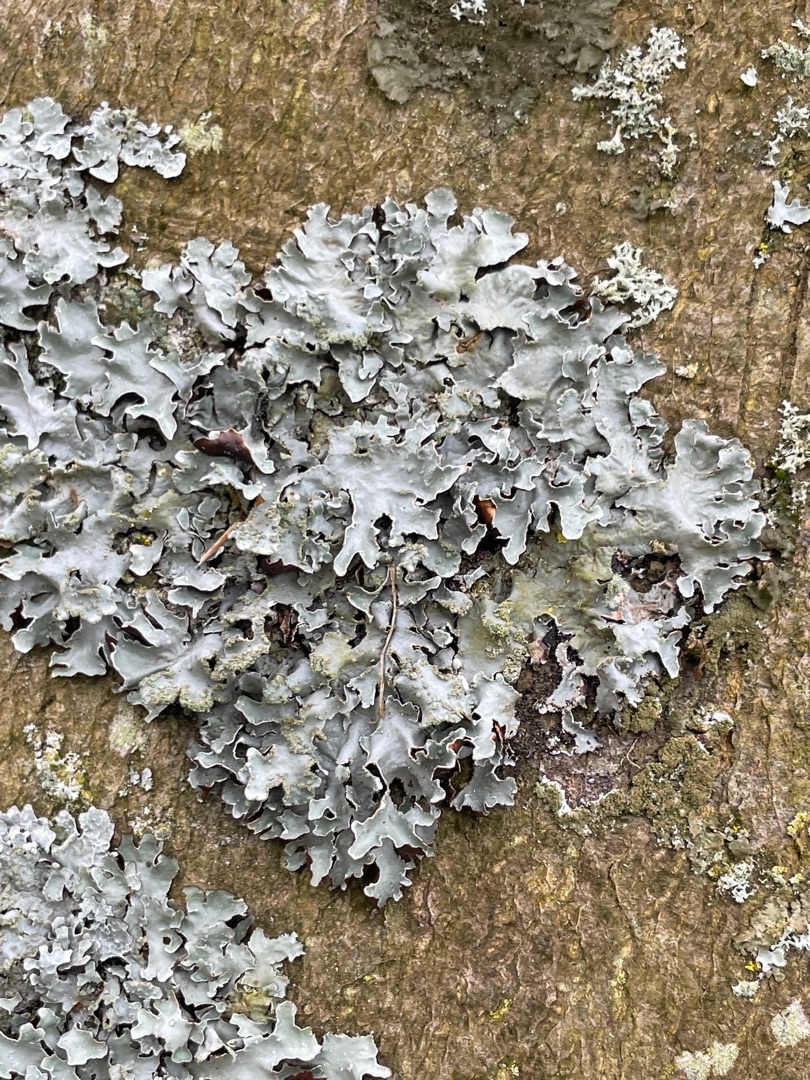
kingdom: Fungi
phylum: Ascomycota
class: Lecanoromycetes
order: Lecanorales
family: Parmeliaceae
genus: Parmelia
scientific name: Parmelia sulcata
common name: Rynket skållav
